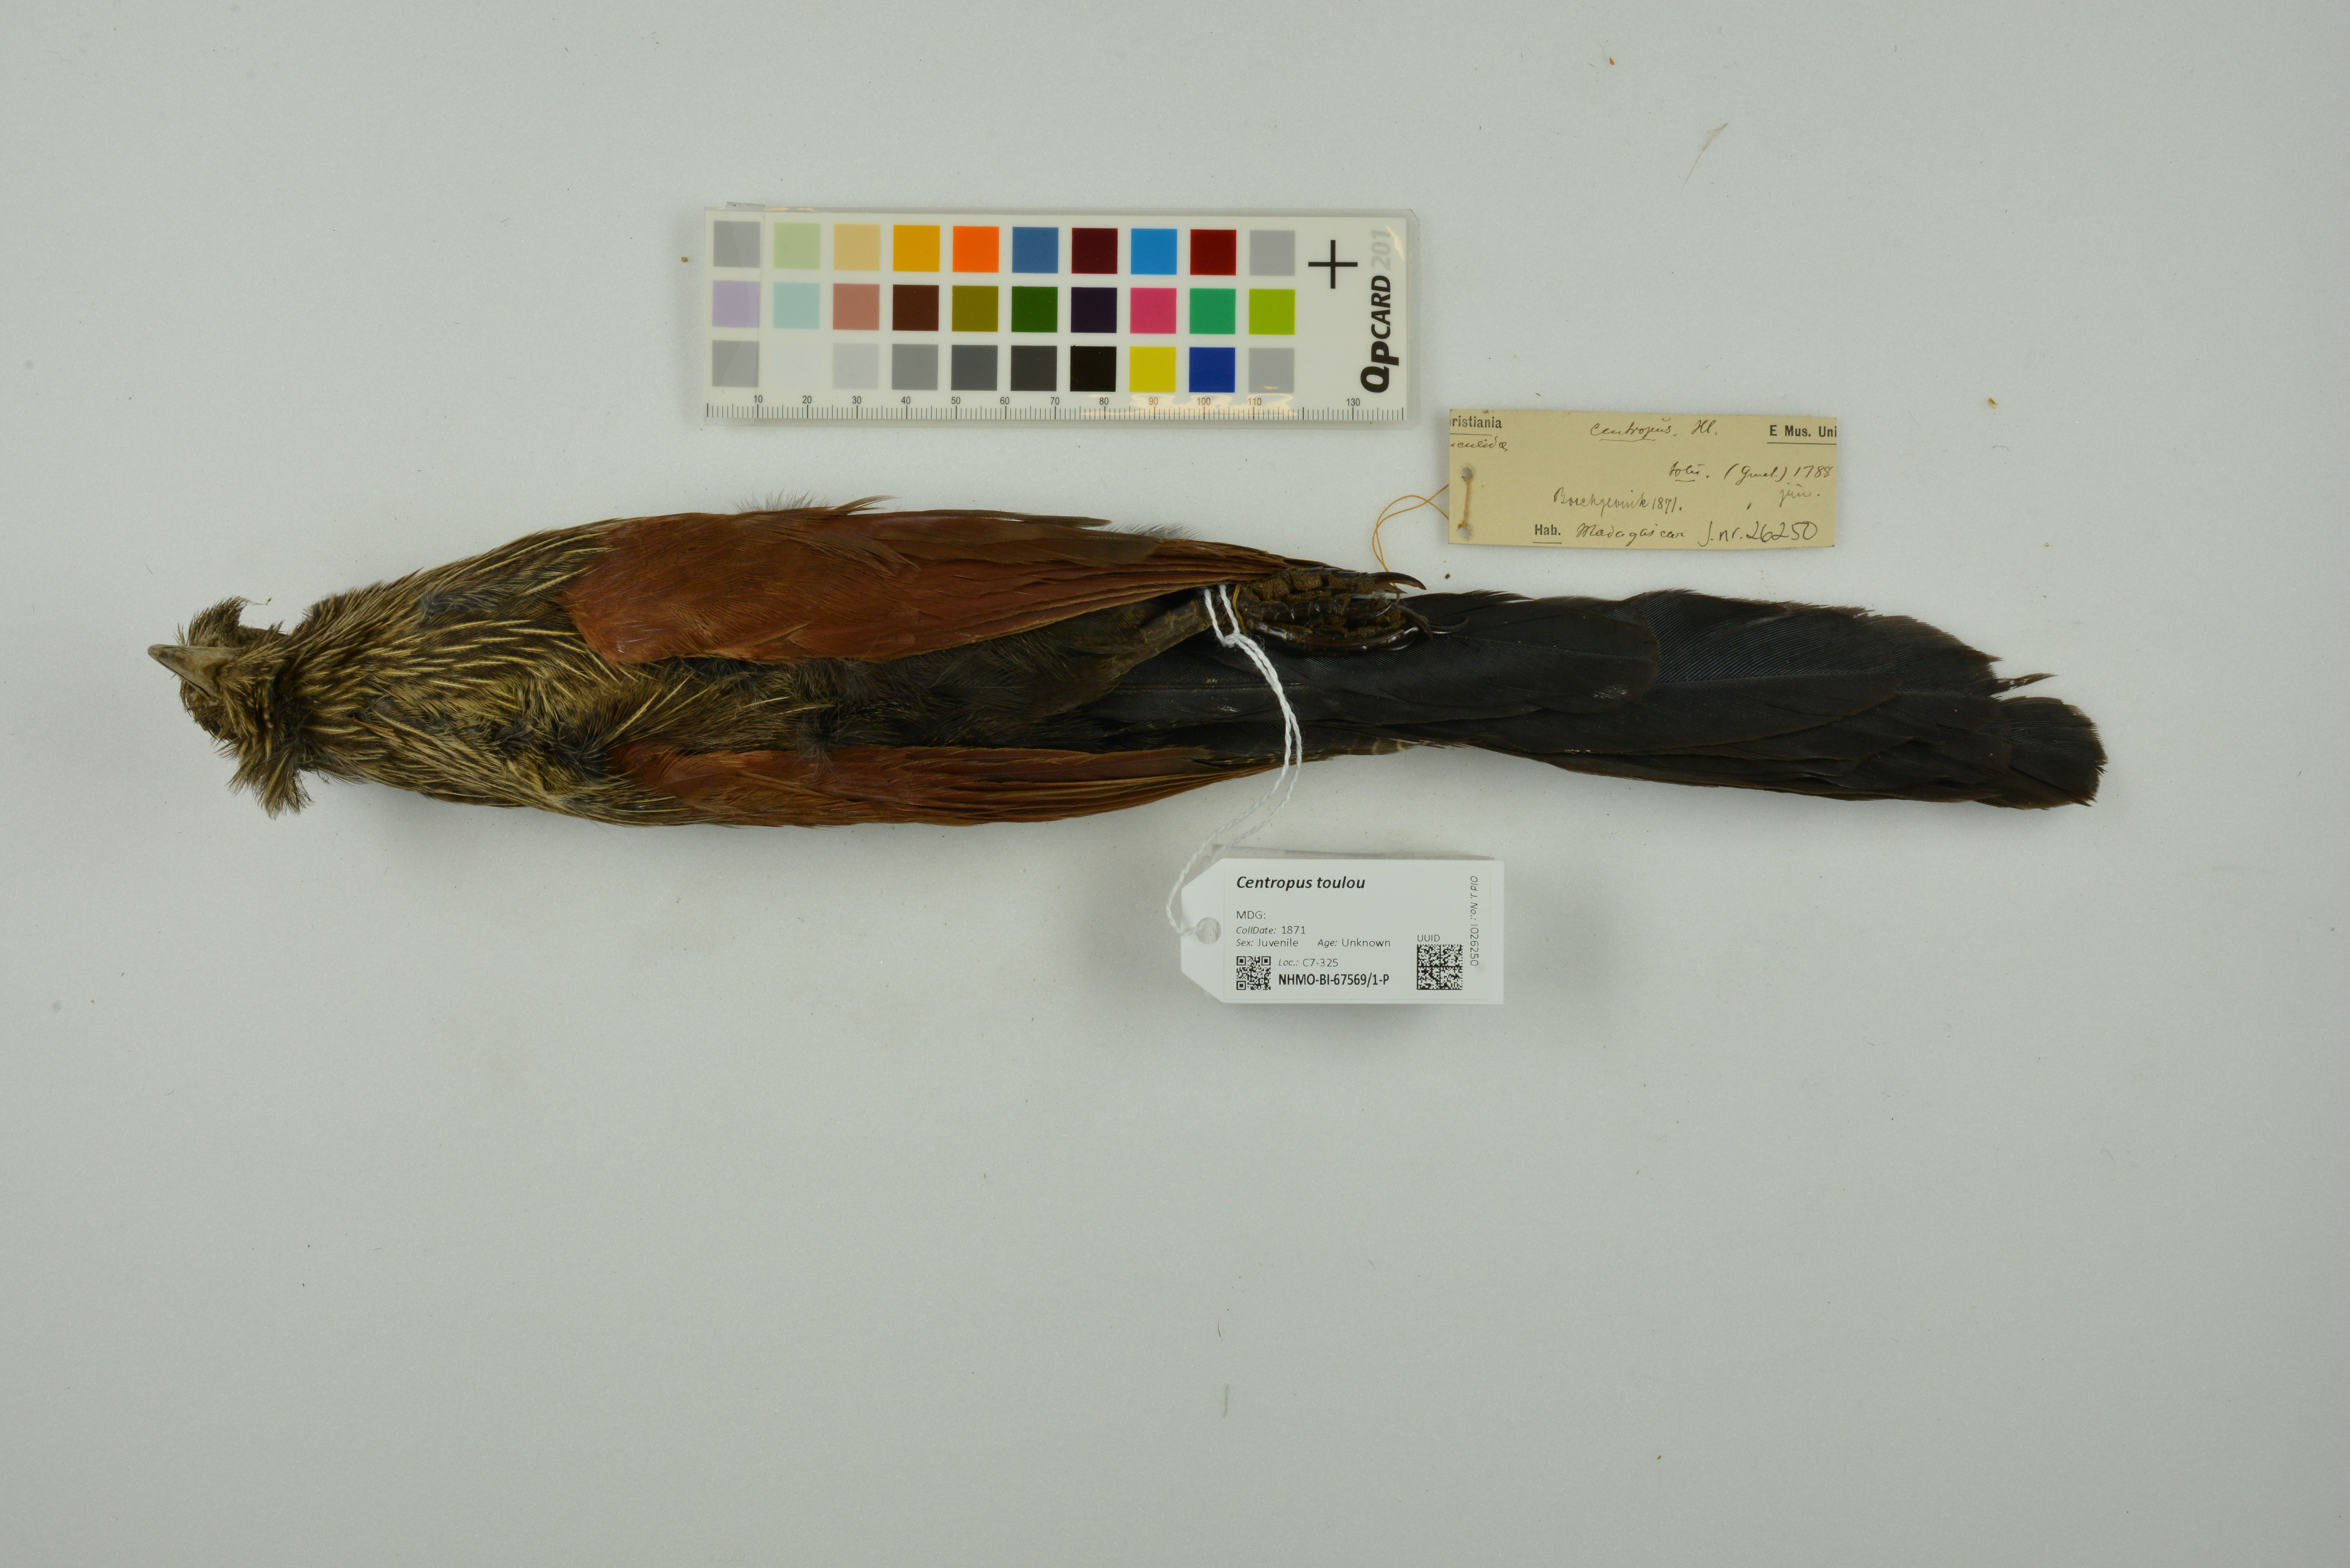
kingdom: Animalia
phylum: Chordata
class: Aves
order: Cuculiformes
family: Cuculidae
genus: Centropus
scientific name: Centropus toulou
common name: Malagasy coucal
